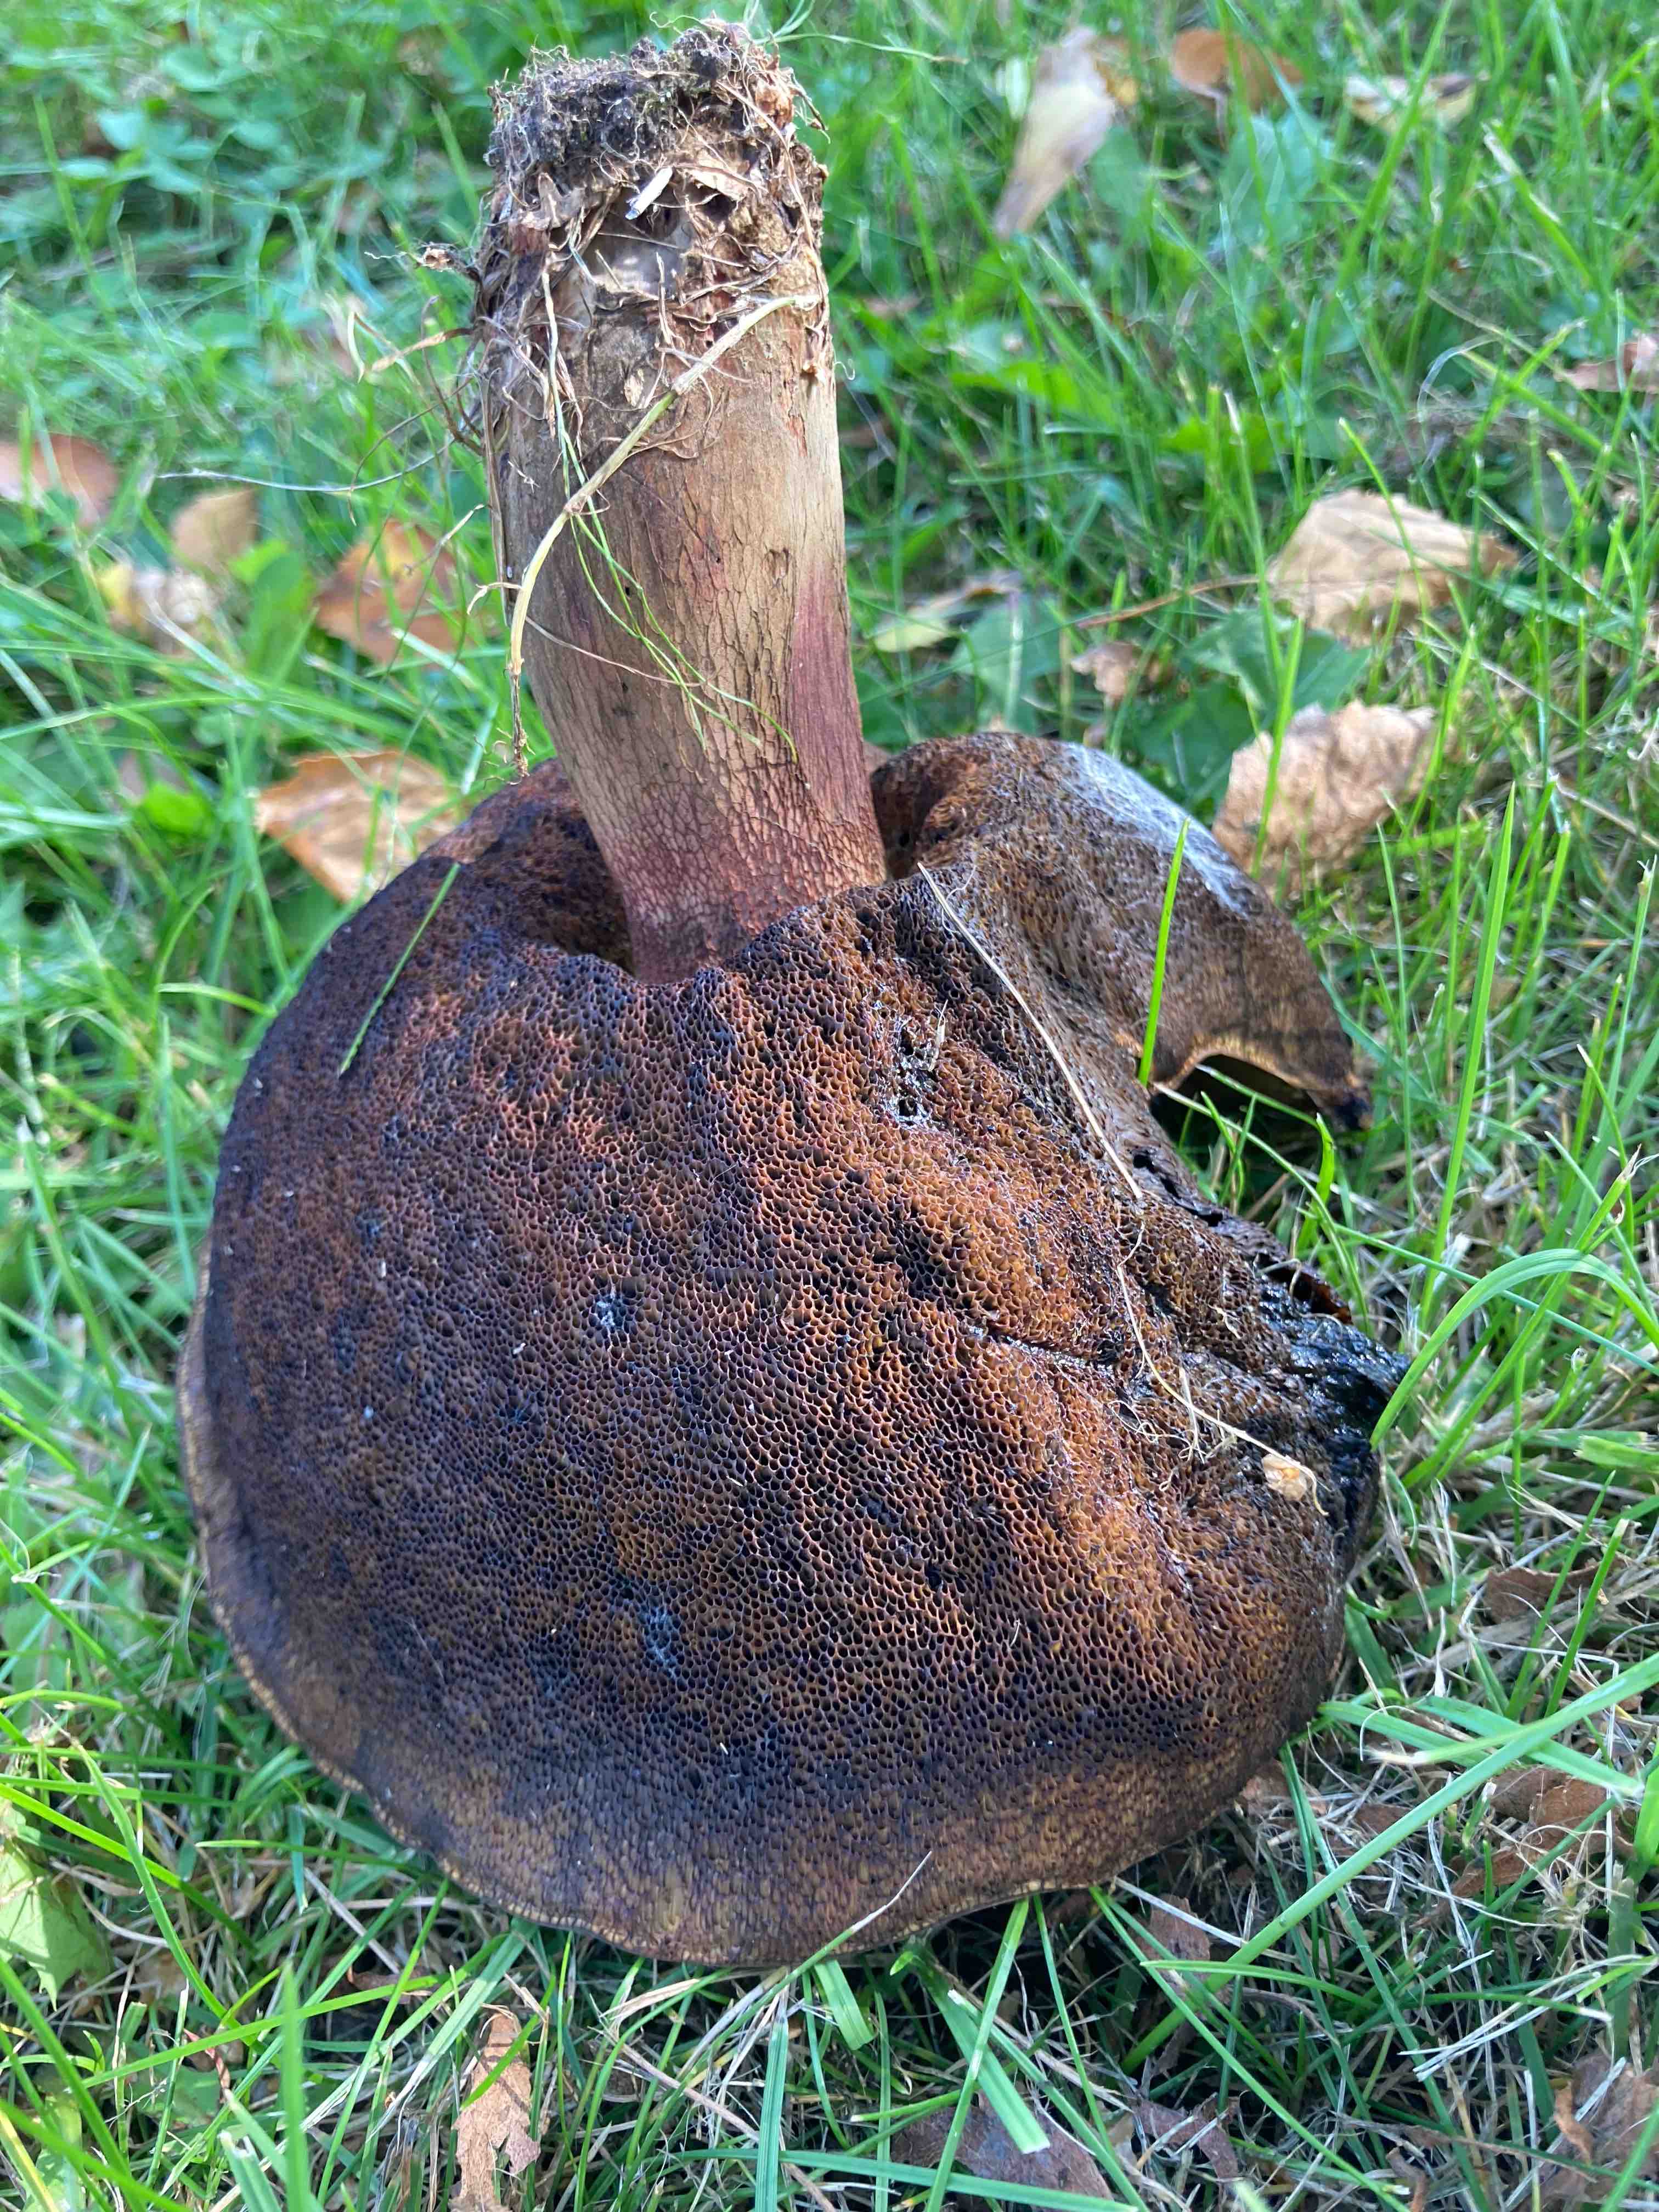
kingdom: Fungi
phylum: Basidiomycota
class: Agaricomycetes
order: Boletales
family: Boletaceae
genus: Suillellus
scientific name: Suillellus luridus
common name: netstokket indigorørhat
